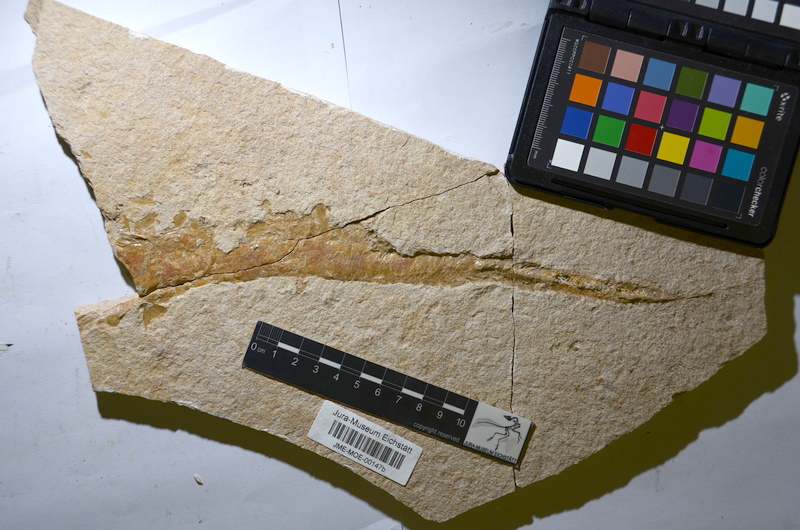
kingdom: Animalia
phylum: Chordata
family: Aspidorhynchidae
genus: Belonostomus
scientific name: Belonostomus
